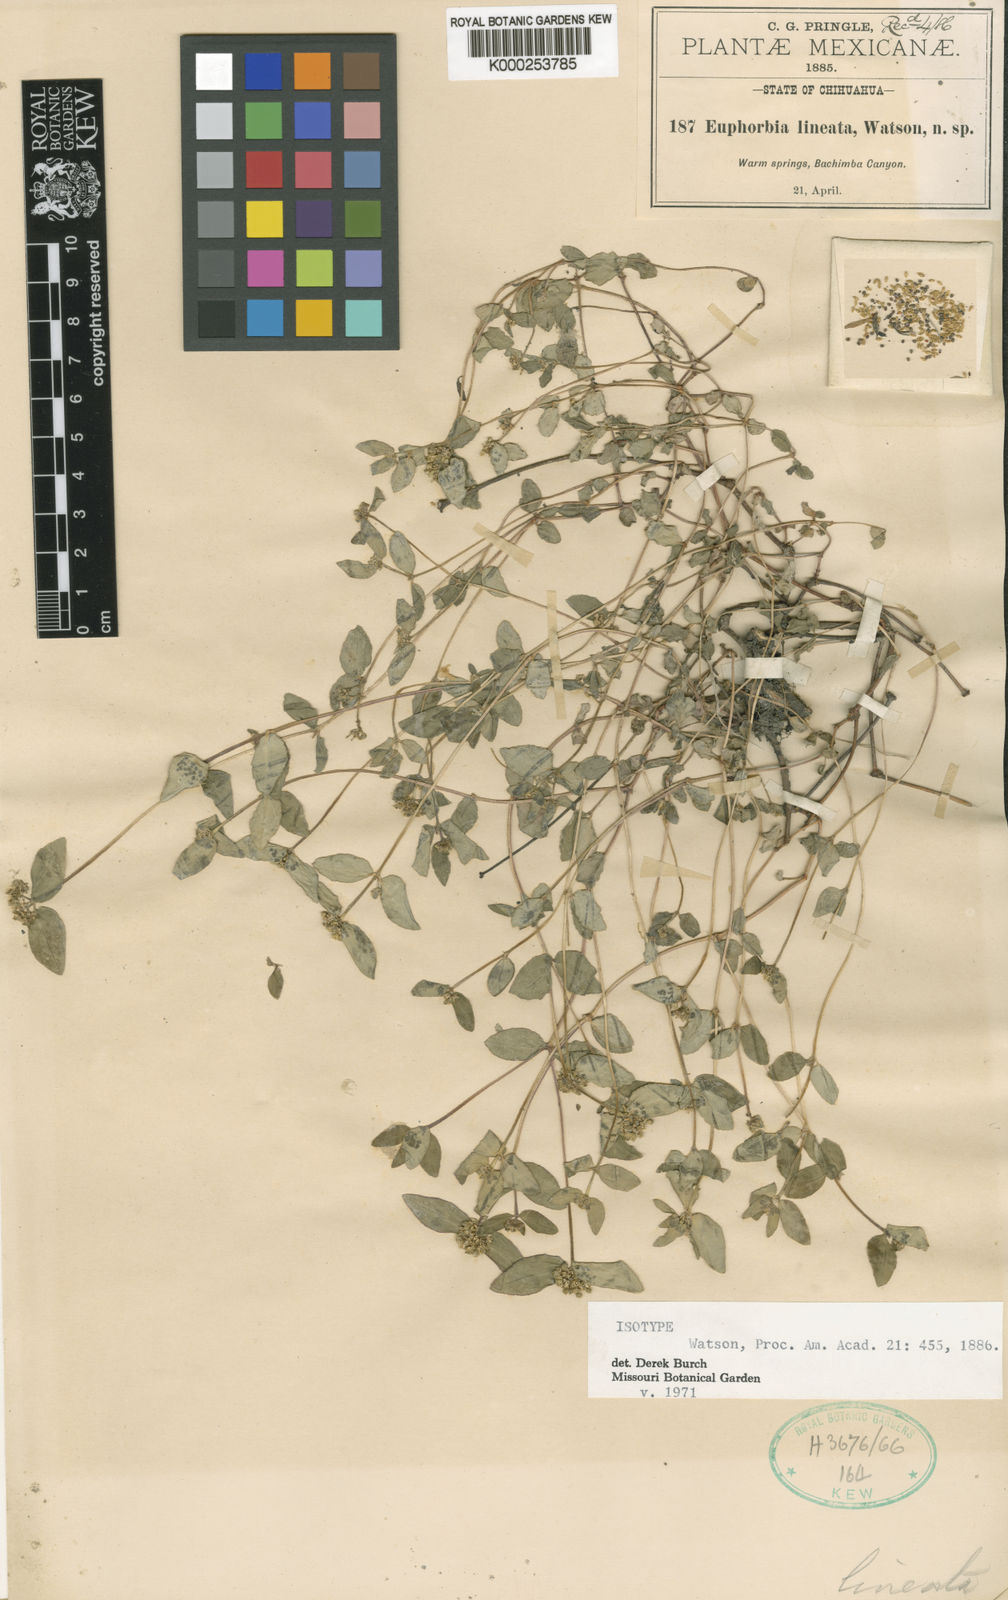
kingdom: Plantae
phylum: Tracheophyta
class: Magnoliopsida
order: Malpighiales
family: Euphorbiaceae
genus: Euphorbia
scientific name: Euphorbia lineata
